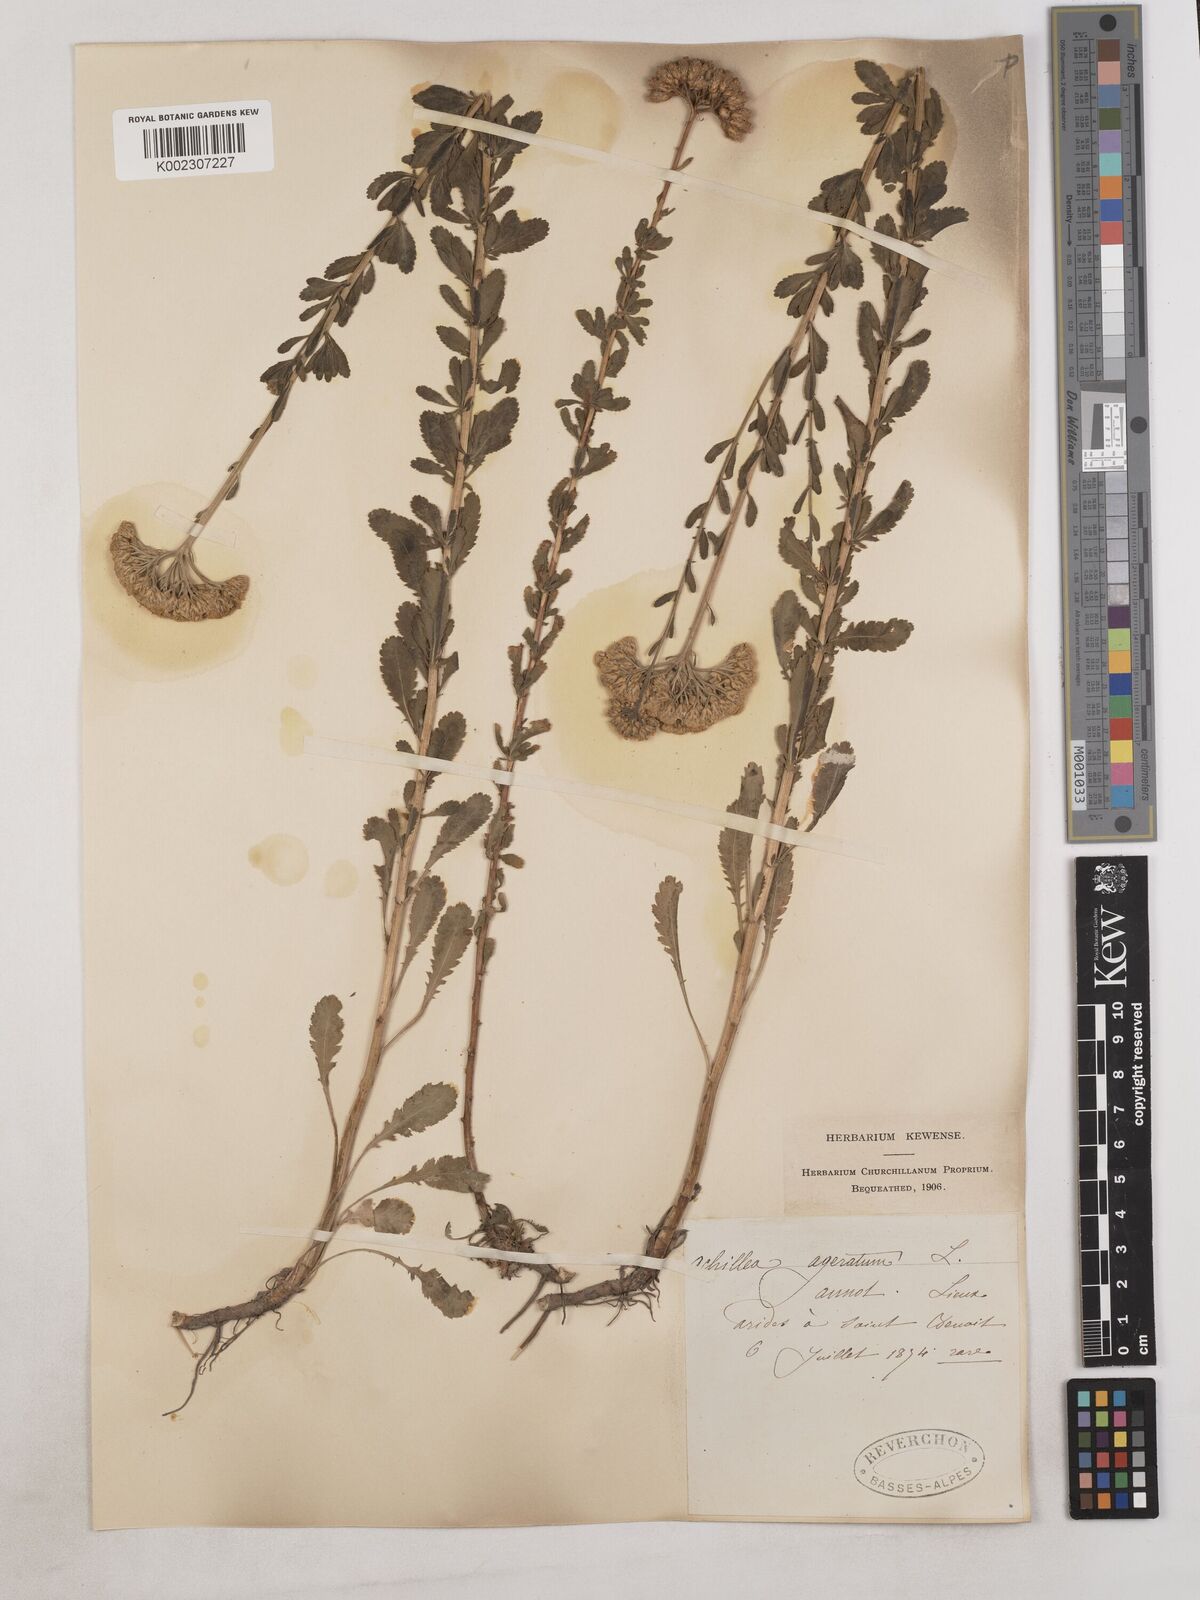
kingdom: Plantae
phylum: Tracheophyta
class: Magnoliopsida
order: Asterales
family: Asteraceae
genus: Achillea
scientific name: Achillea ageratum
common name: Sweet-nancy
